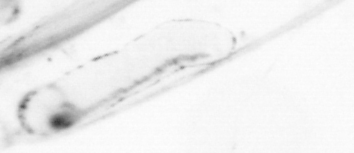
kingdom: Animalia
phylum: Chaetognatha
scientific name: Chaetognatha
